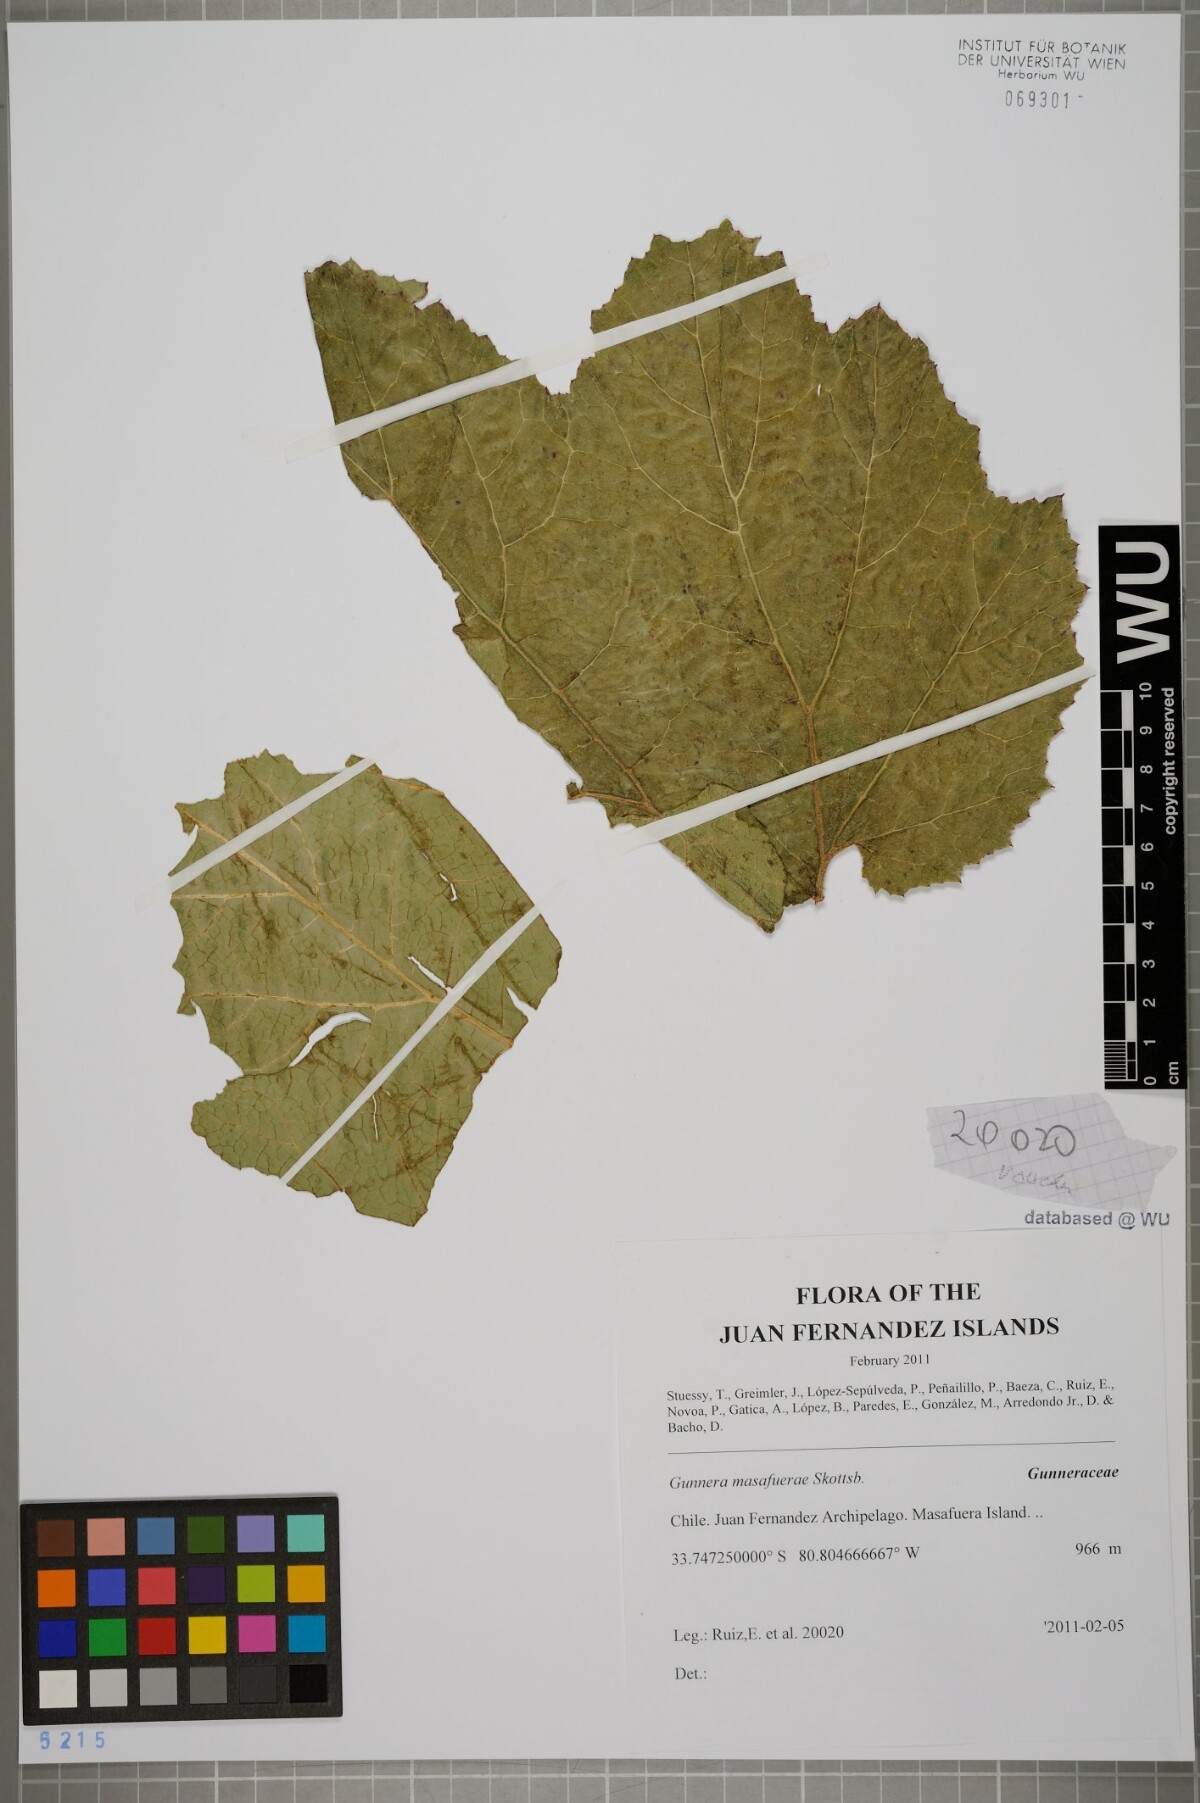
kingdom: Plantae
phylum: Tracheophyta
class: Magnoliopsida
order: Gunnerales
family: Gunneraceae
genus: Gunnera
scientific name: Gunnera masafuerae
